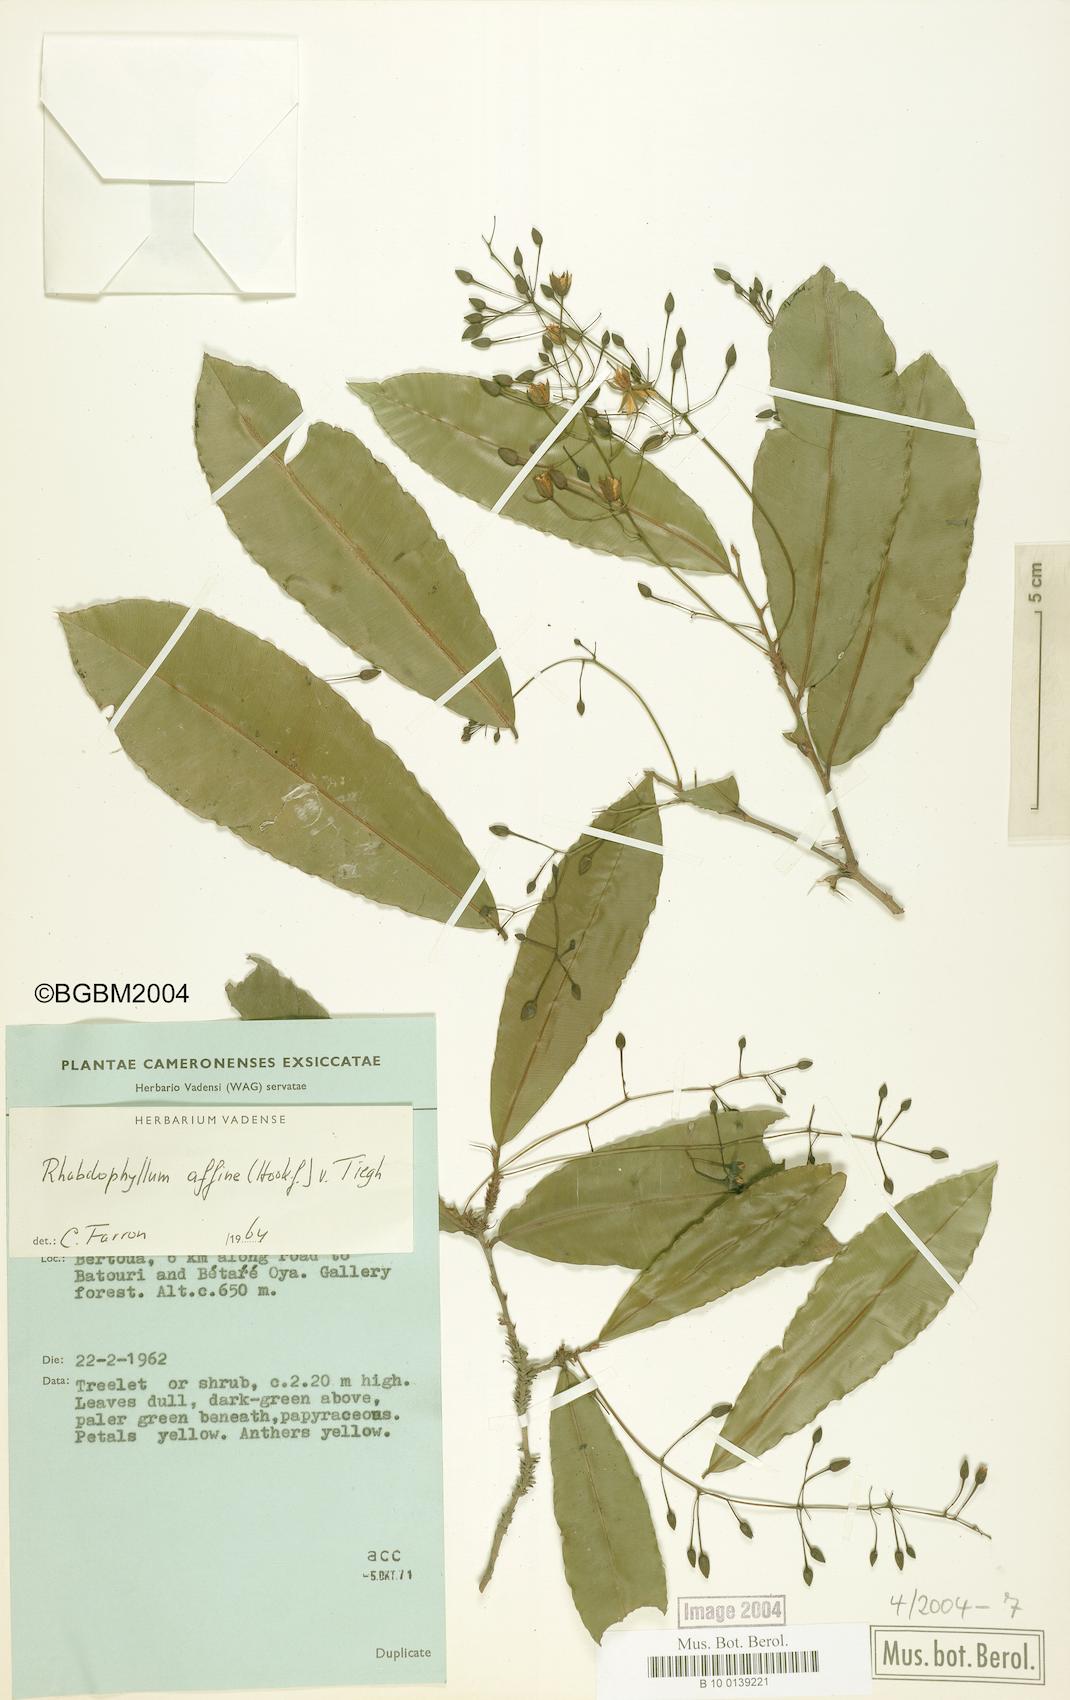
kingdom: Plantae
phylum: Tracheophyta
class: Magnoliopsida
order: Malpighiales
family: Ochnaceae
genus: Rhabdophyllum
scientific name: Rhabdophyllum affine
